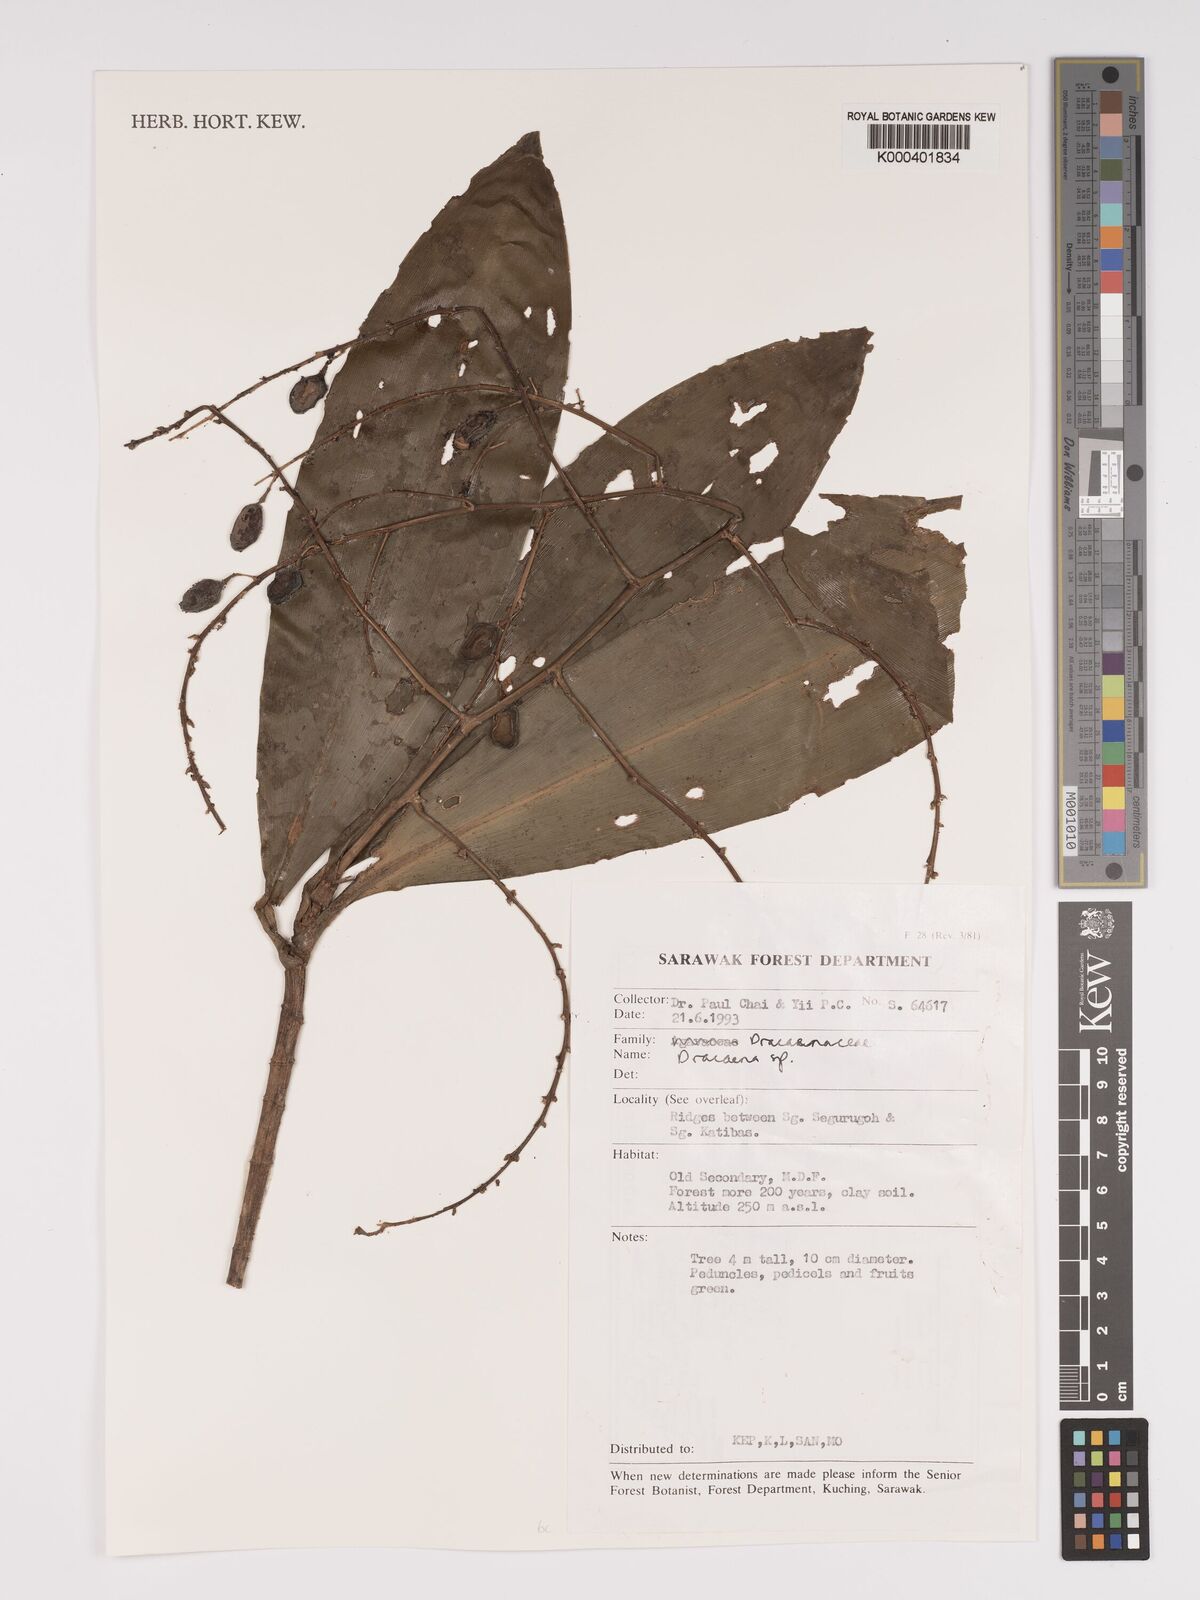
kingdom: Plantae
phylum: Tracheophyta
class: Liliopsida
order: Asparagales
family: Asparagaceae
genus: Dracaena
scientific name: Dracaena
